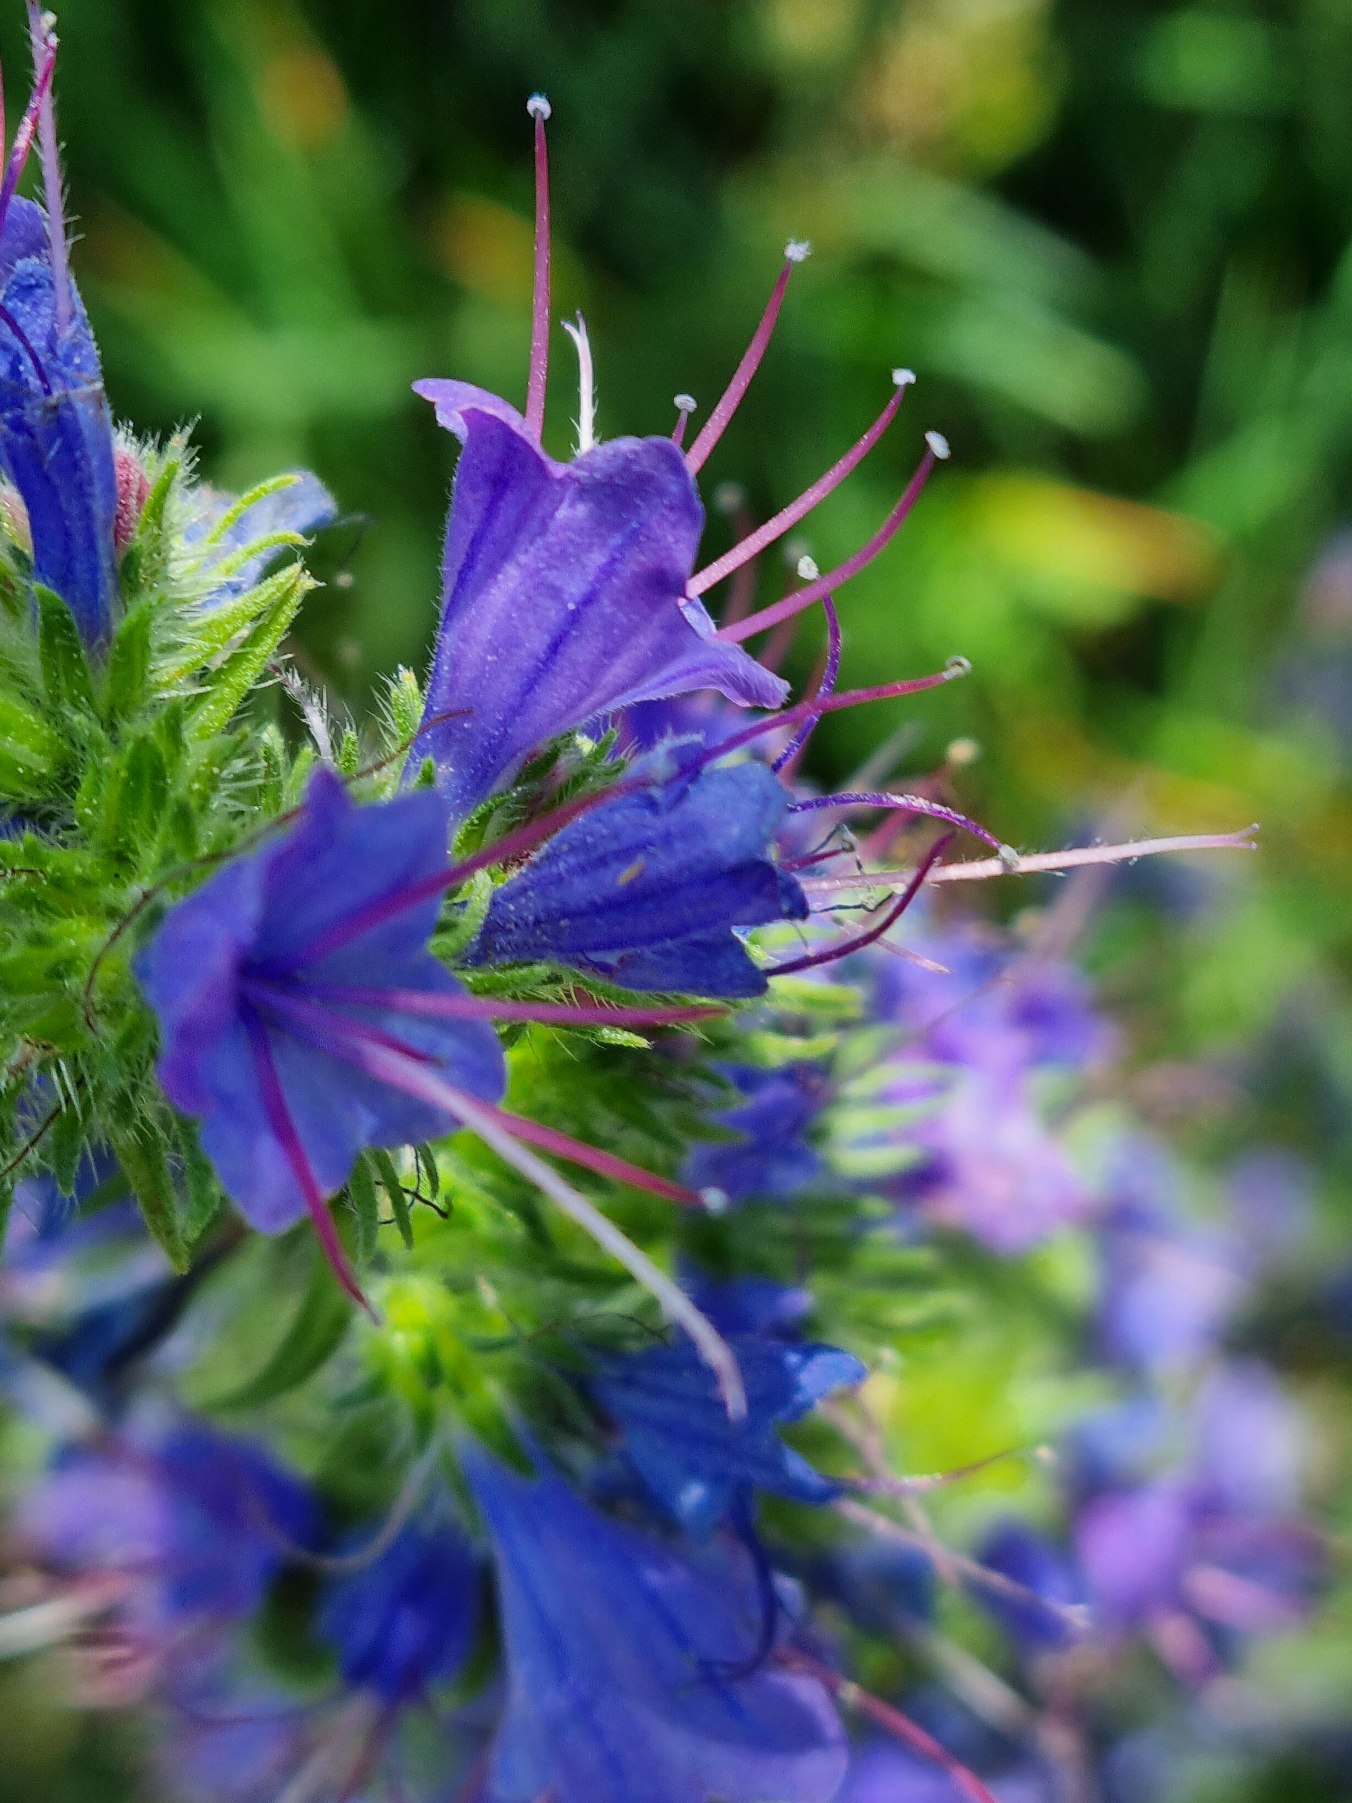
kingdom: Plantae
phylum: Tracheophyta
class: Magnoliopsida
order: Boraginales
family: Boraginaceae
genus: Echium
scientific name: Echium vulgare
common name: Slangehoved
